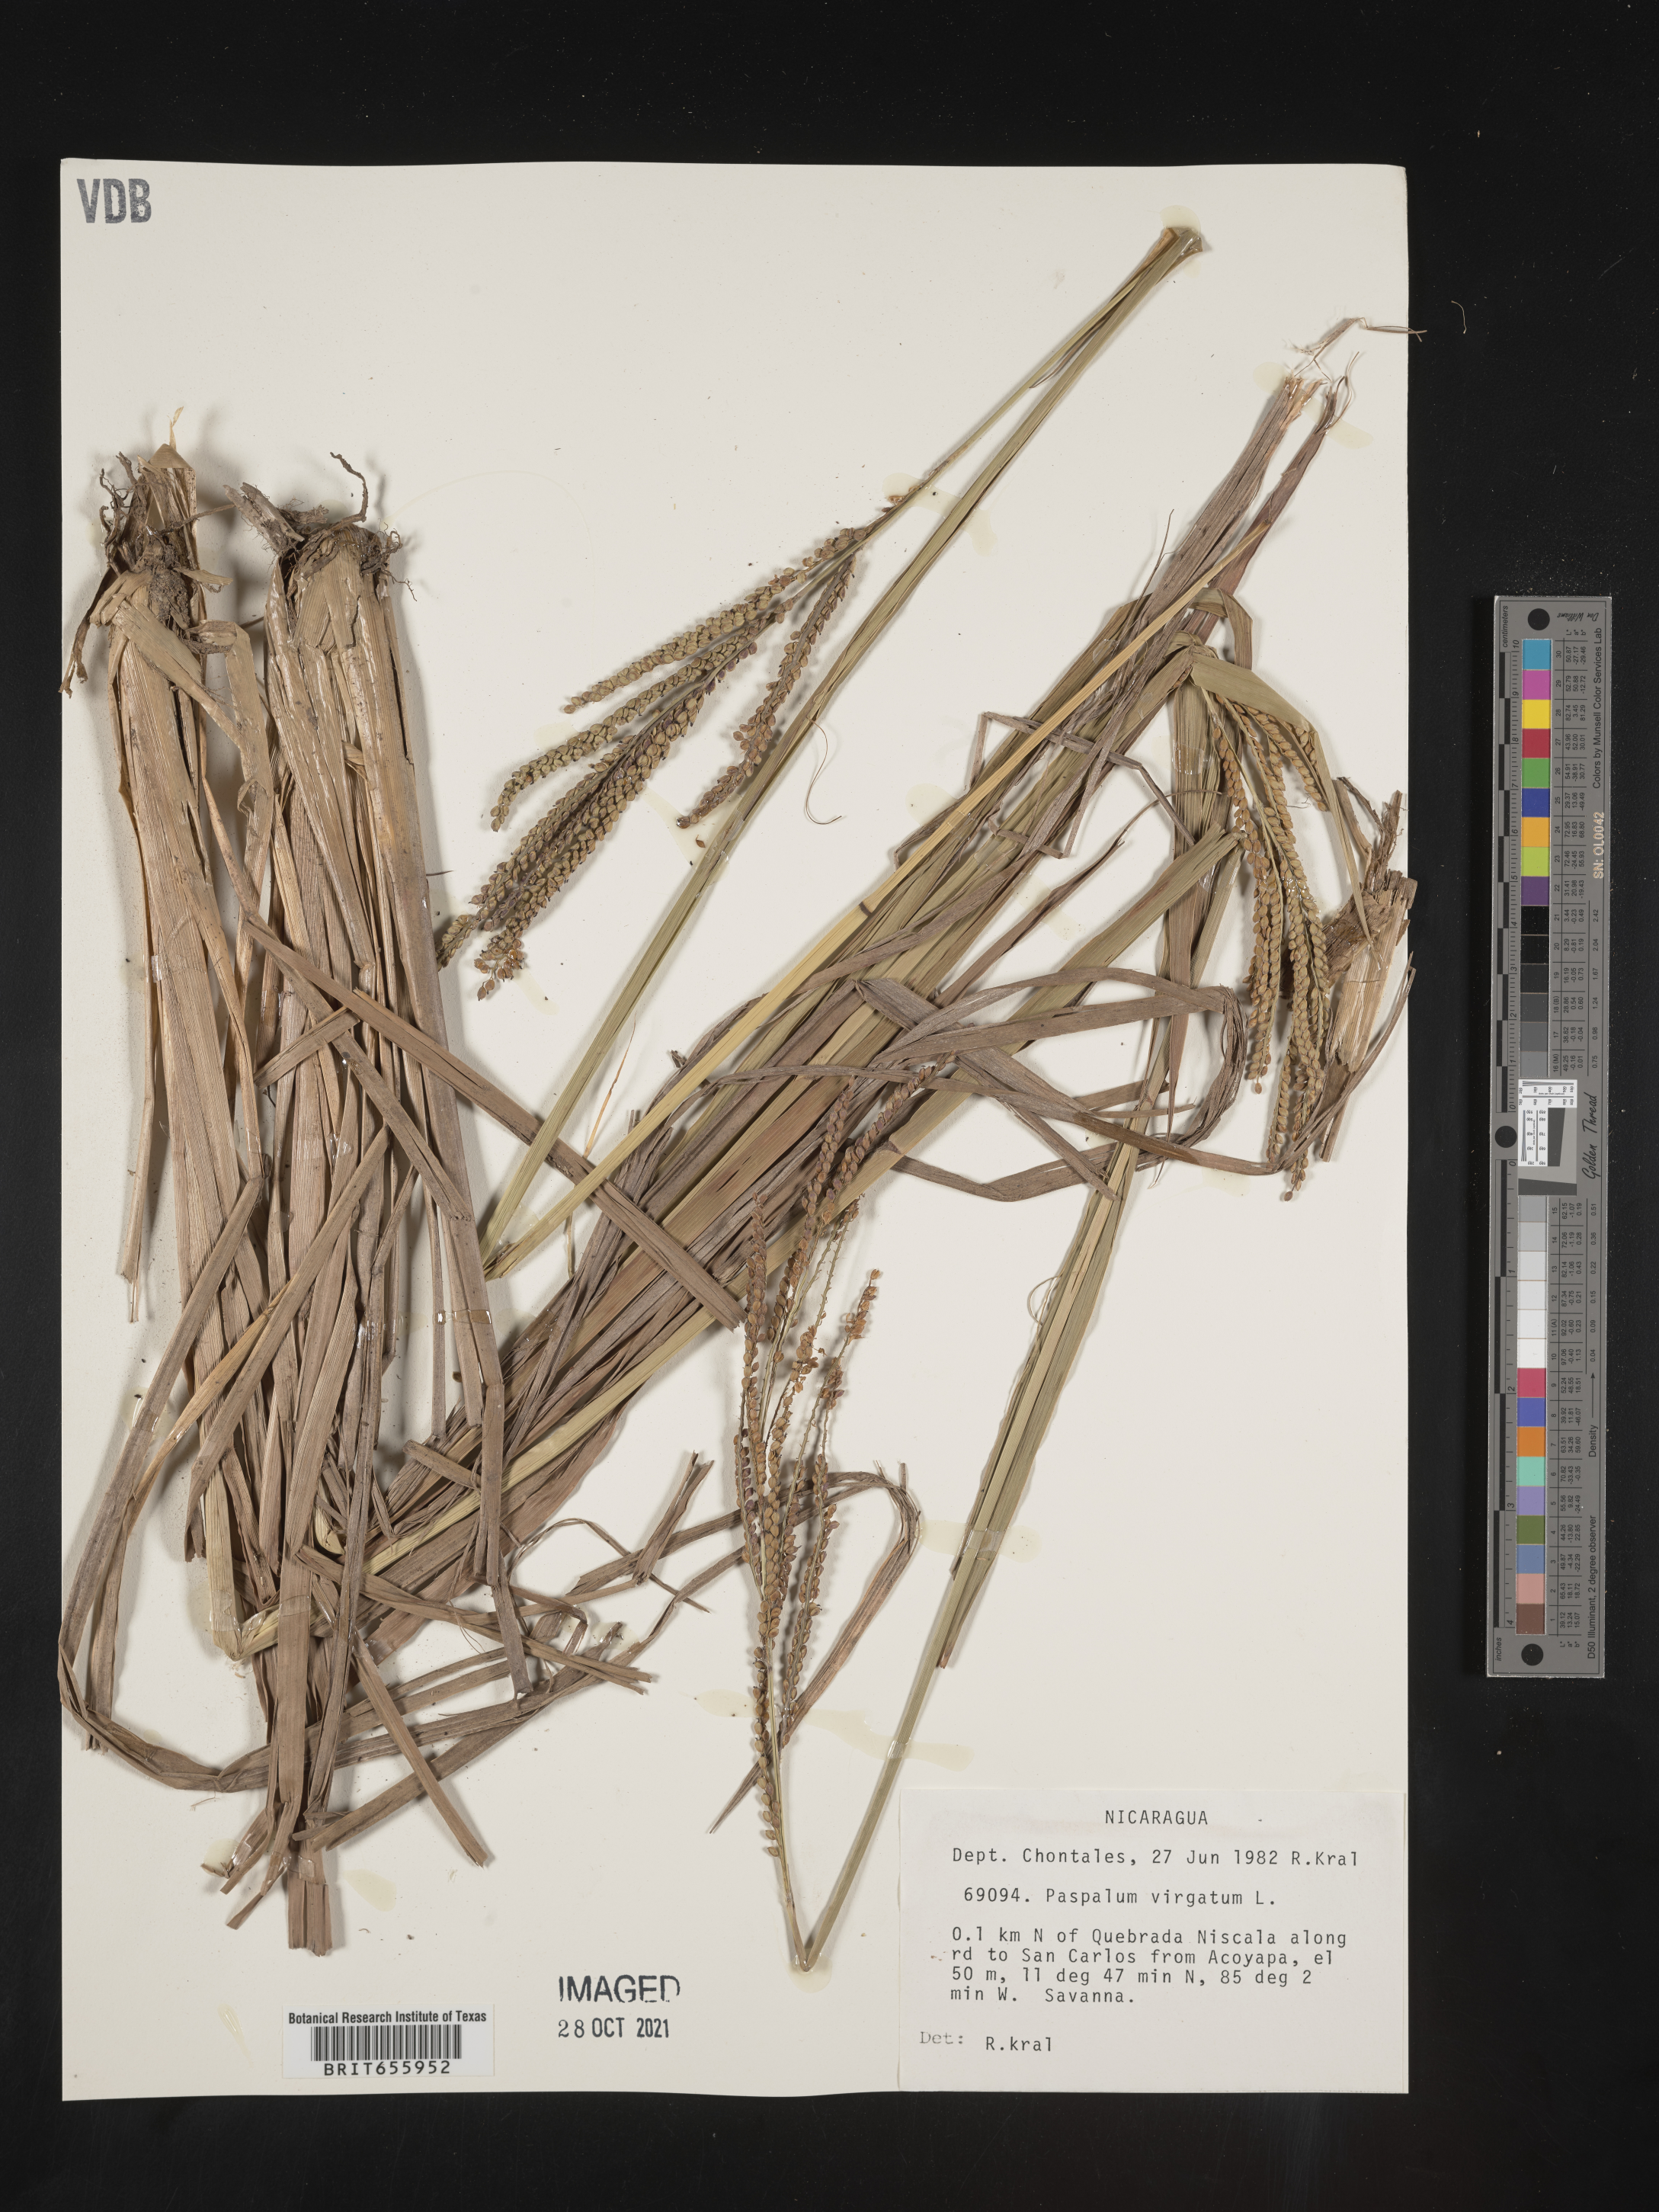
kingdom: Plantae
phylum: Tracheophyta
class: Liliopsida
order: Poales
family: Poaceae
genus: Paspalum
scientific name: Paspalum
